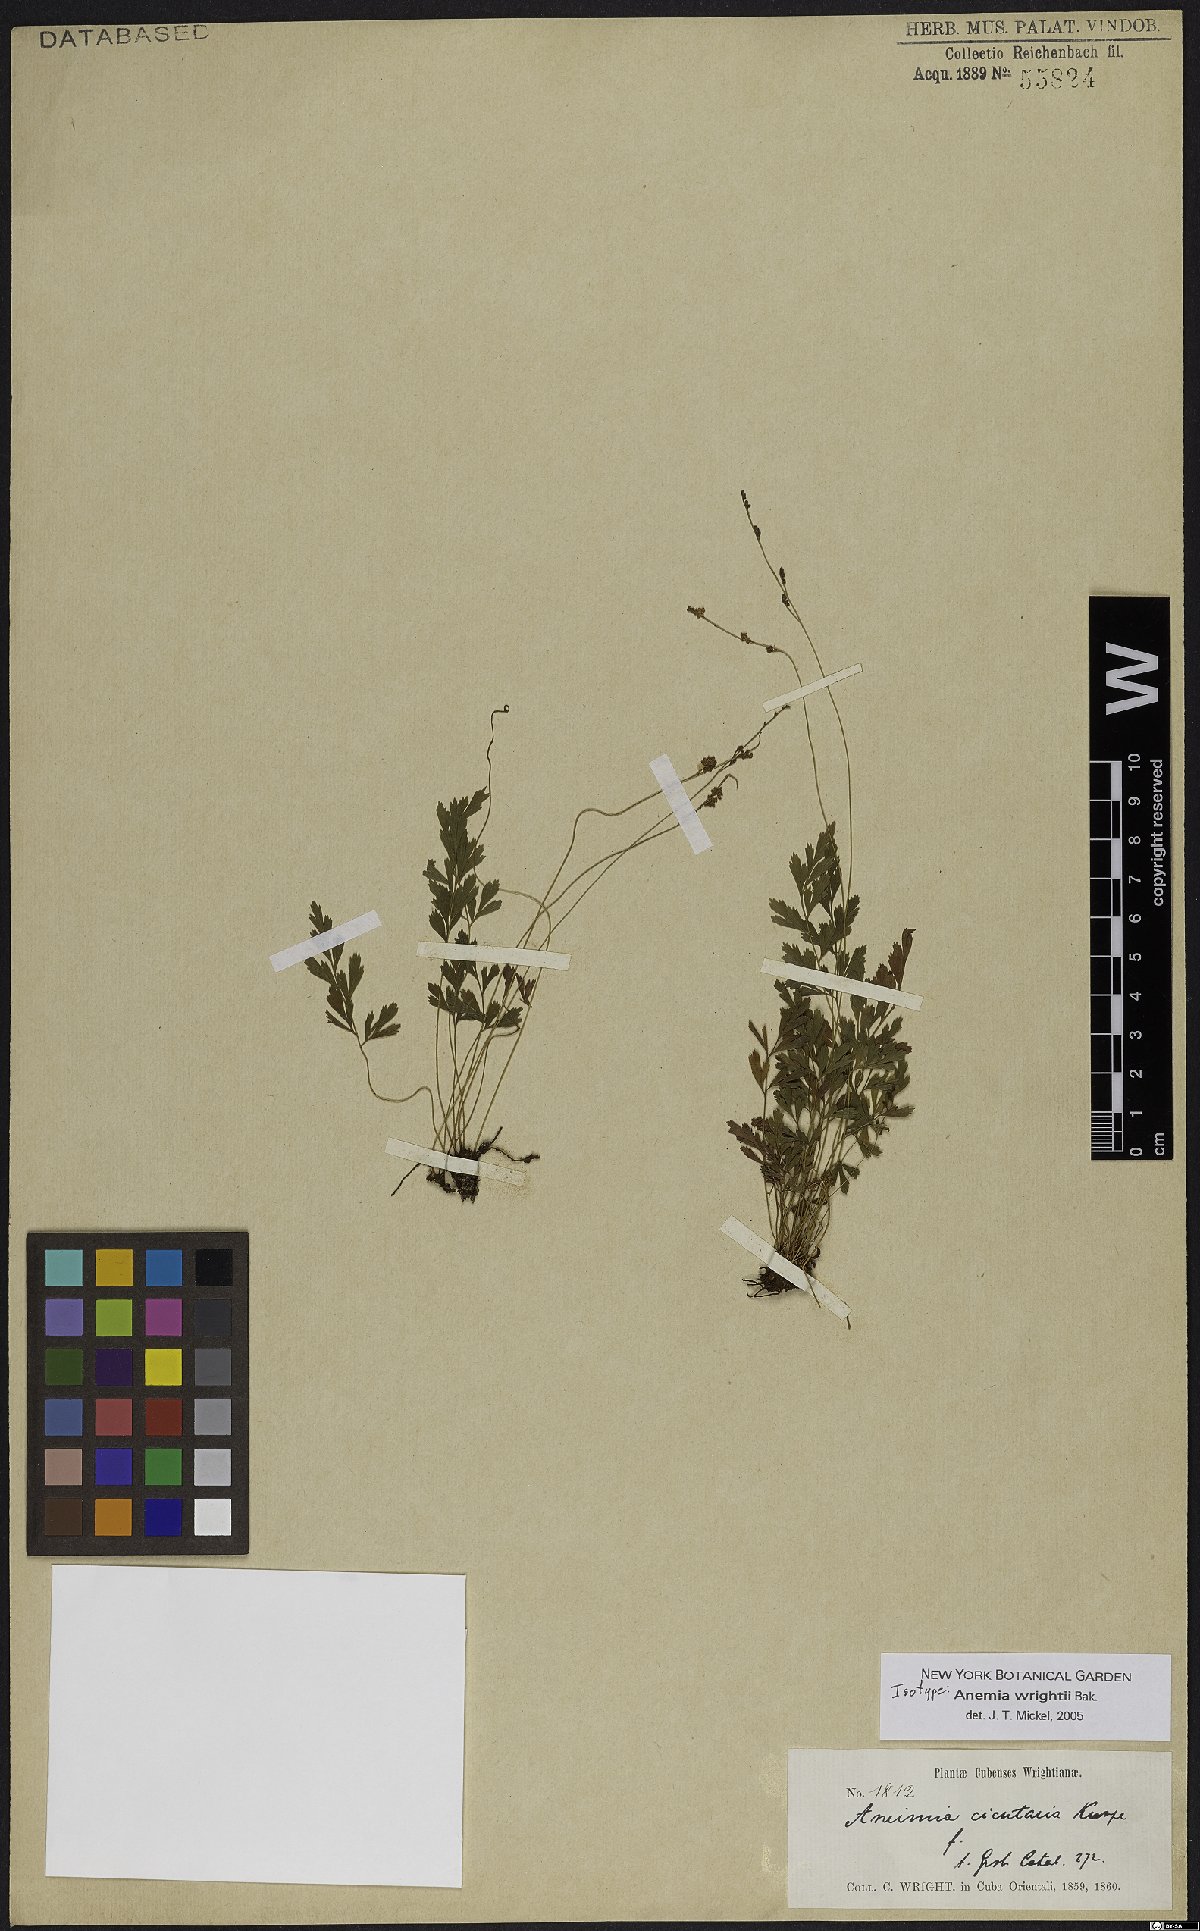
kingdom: Plantae
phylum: Tracheophyta
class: Polypodiopsida
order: Schizaeales
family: Anemiaceae
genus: Anemia
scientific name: Anemia wrightii
